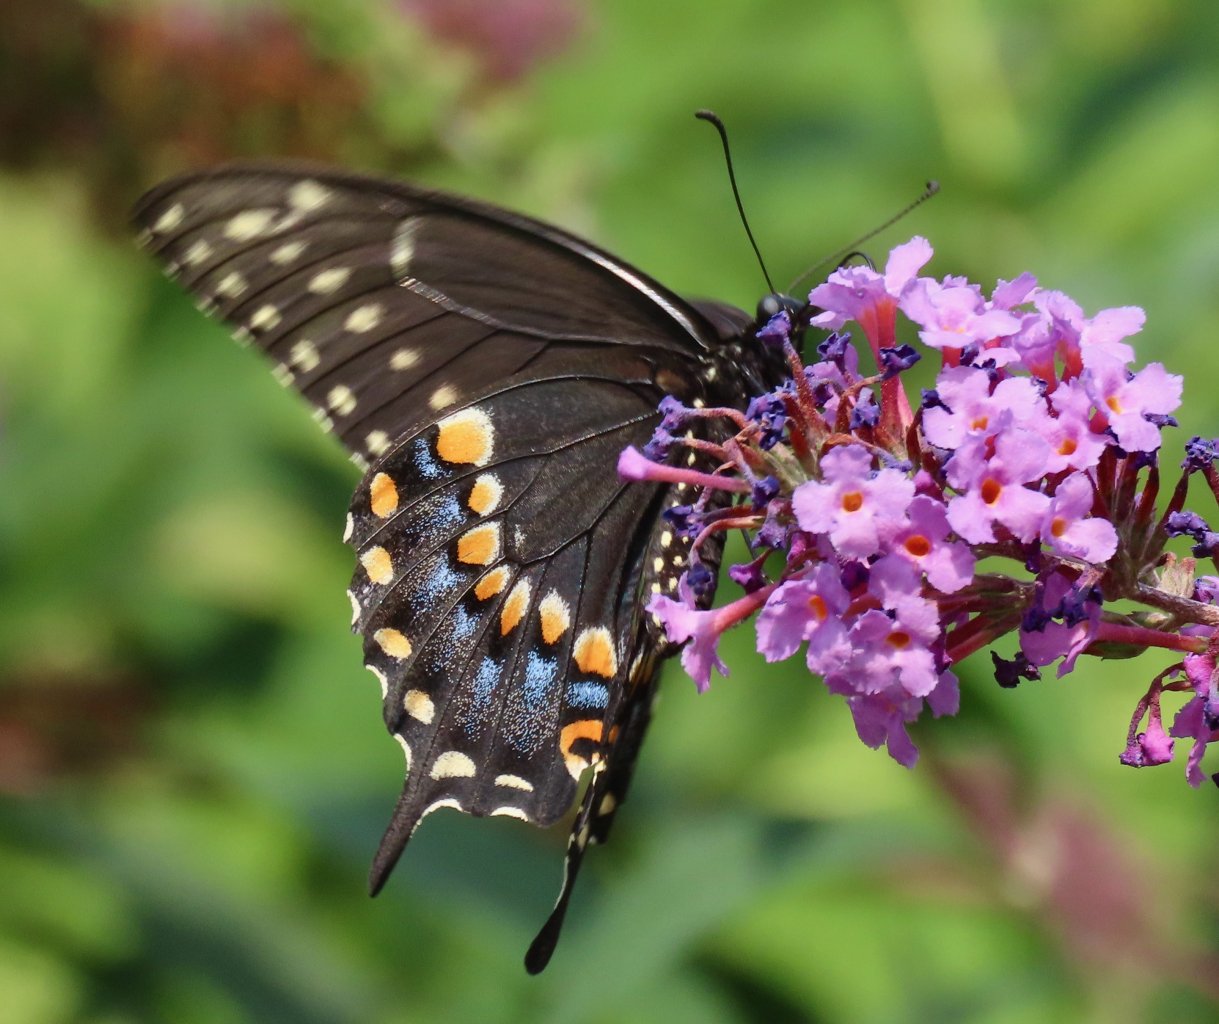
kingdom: Animalia
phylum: Arthropoda
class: Insecta
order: Lepidoptera
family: Papilionidae
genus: Papilio
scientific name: Papilio polyxenes
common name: Black Swallowtail
